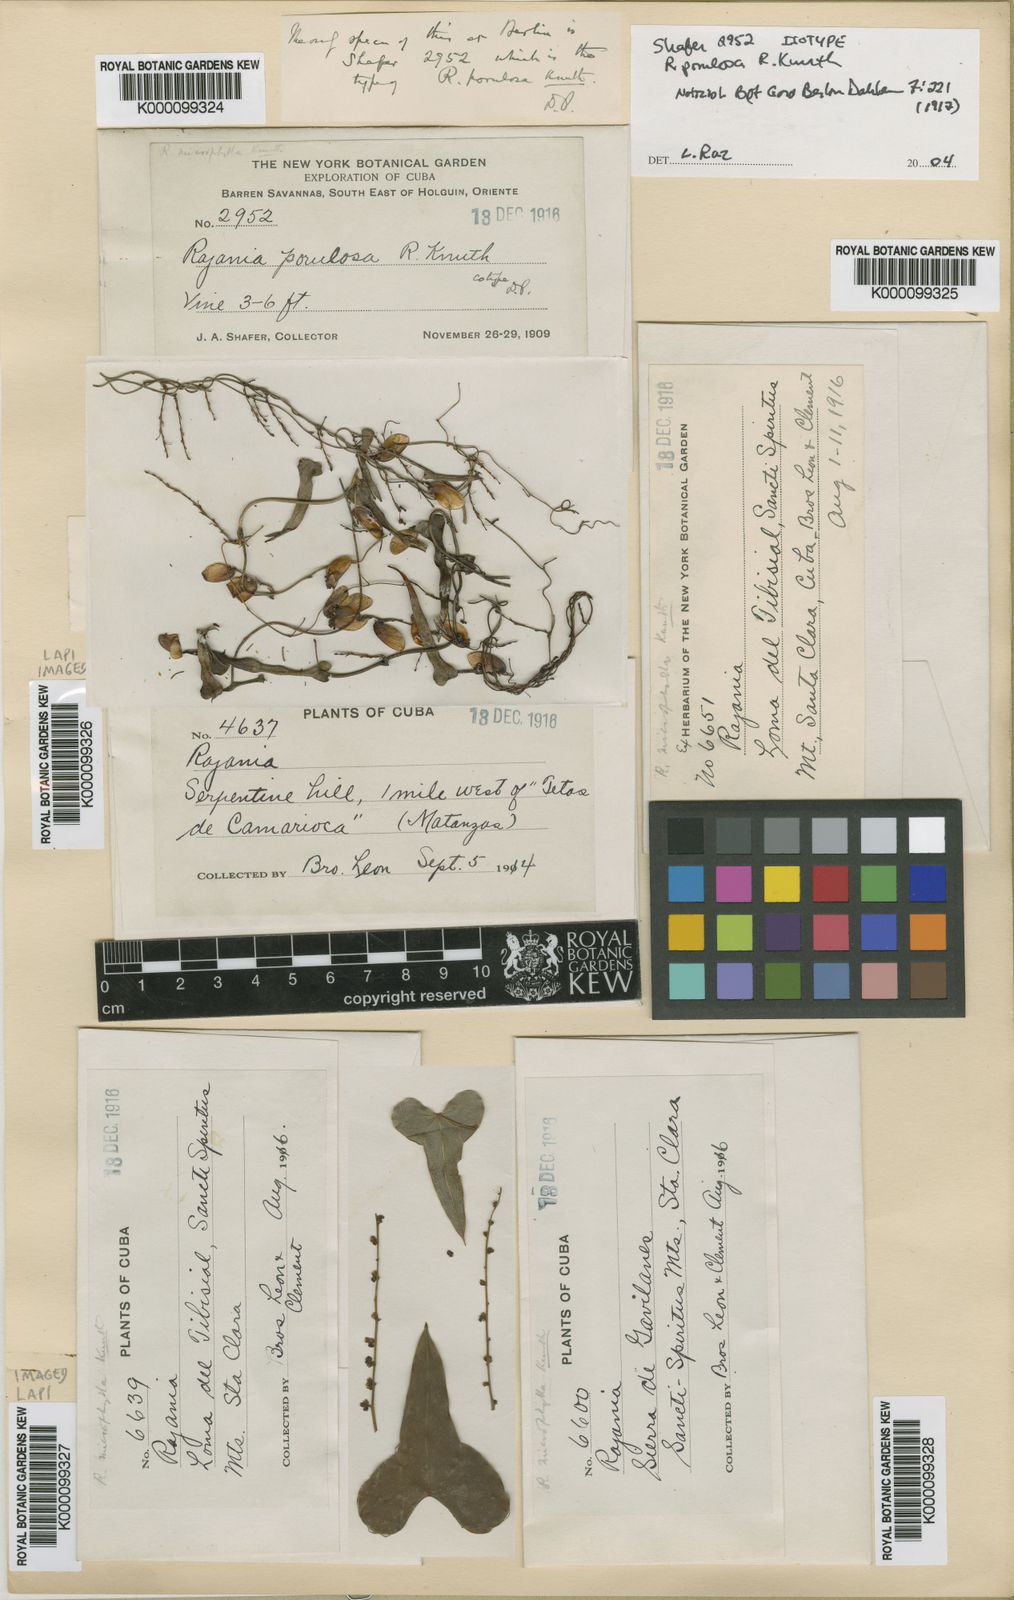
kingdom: Plantae
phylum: Tracheophyta
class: Liliopsida
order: Dioscoreales
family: Dioscoreaceae
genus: Dioscorea
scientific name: Dioscorea porulosa
